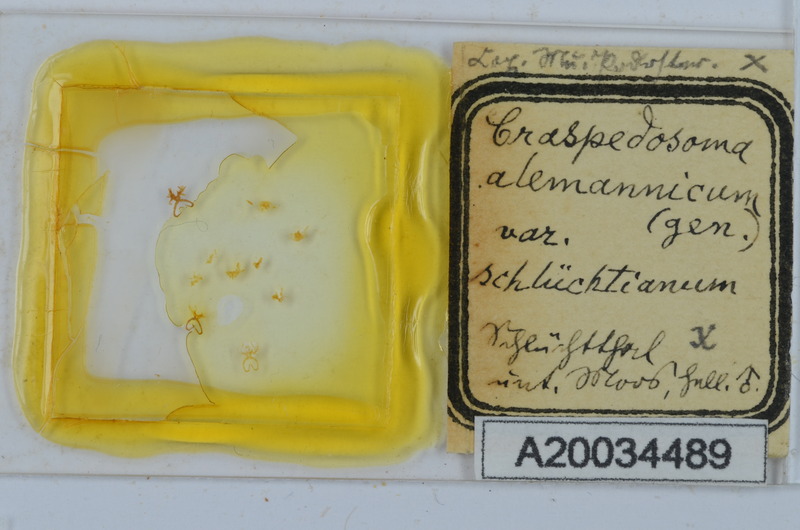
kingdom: Animalia
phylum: Arthropoda
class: Diplopoda
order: Chordeumatida
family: Craspedosomatidae
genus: Craspedosoma
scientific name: Craspedosoma rawlinsii
